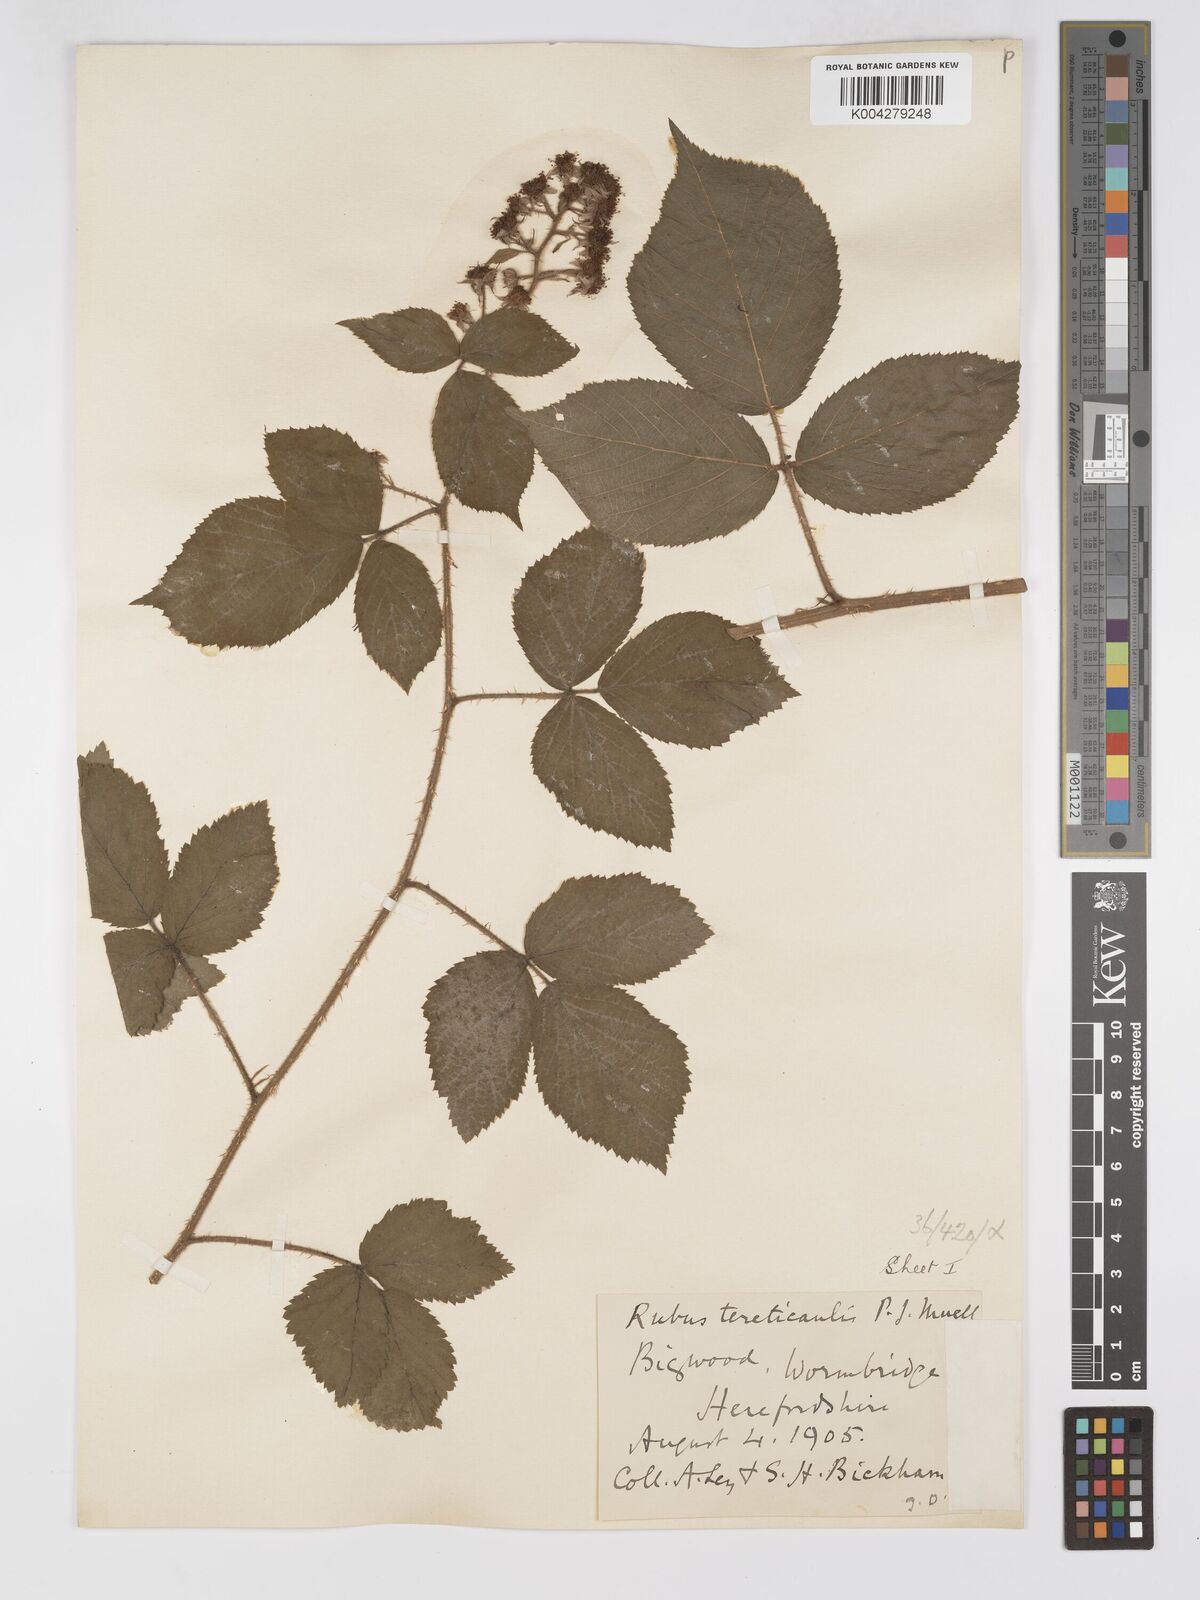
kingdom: Plantae
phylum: Tracheophyta
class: Magnoliopsida
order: Rosales
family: Rosaceae
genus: Rubus
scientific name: Rubus tereticaulis
